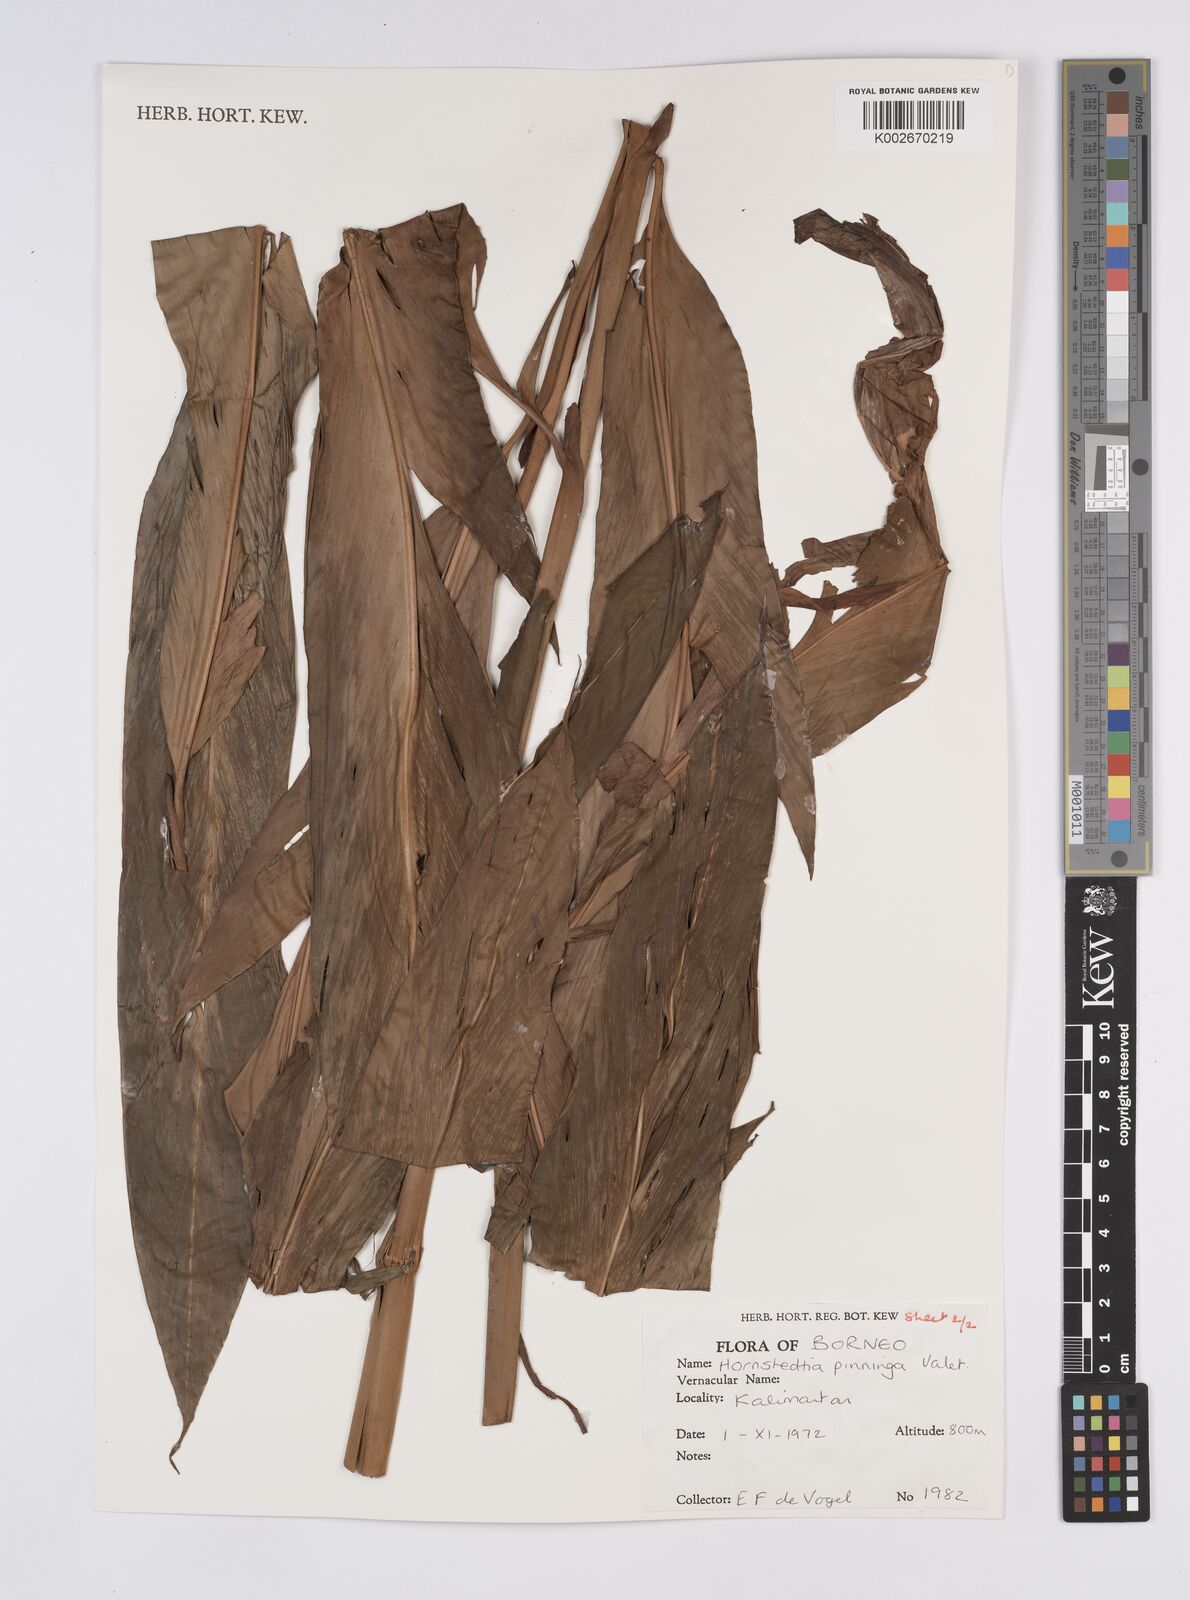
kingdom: Plantae
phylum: Tracheophyta
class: Liliopsida
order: Zingiberales
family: Zingiberaceae
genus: Hornstedtia
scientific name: Hornstedtia pininga
